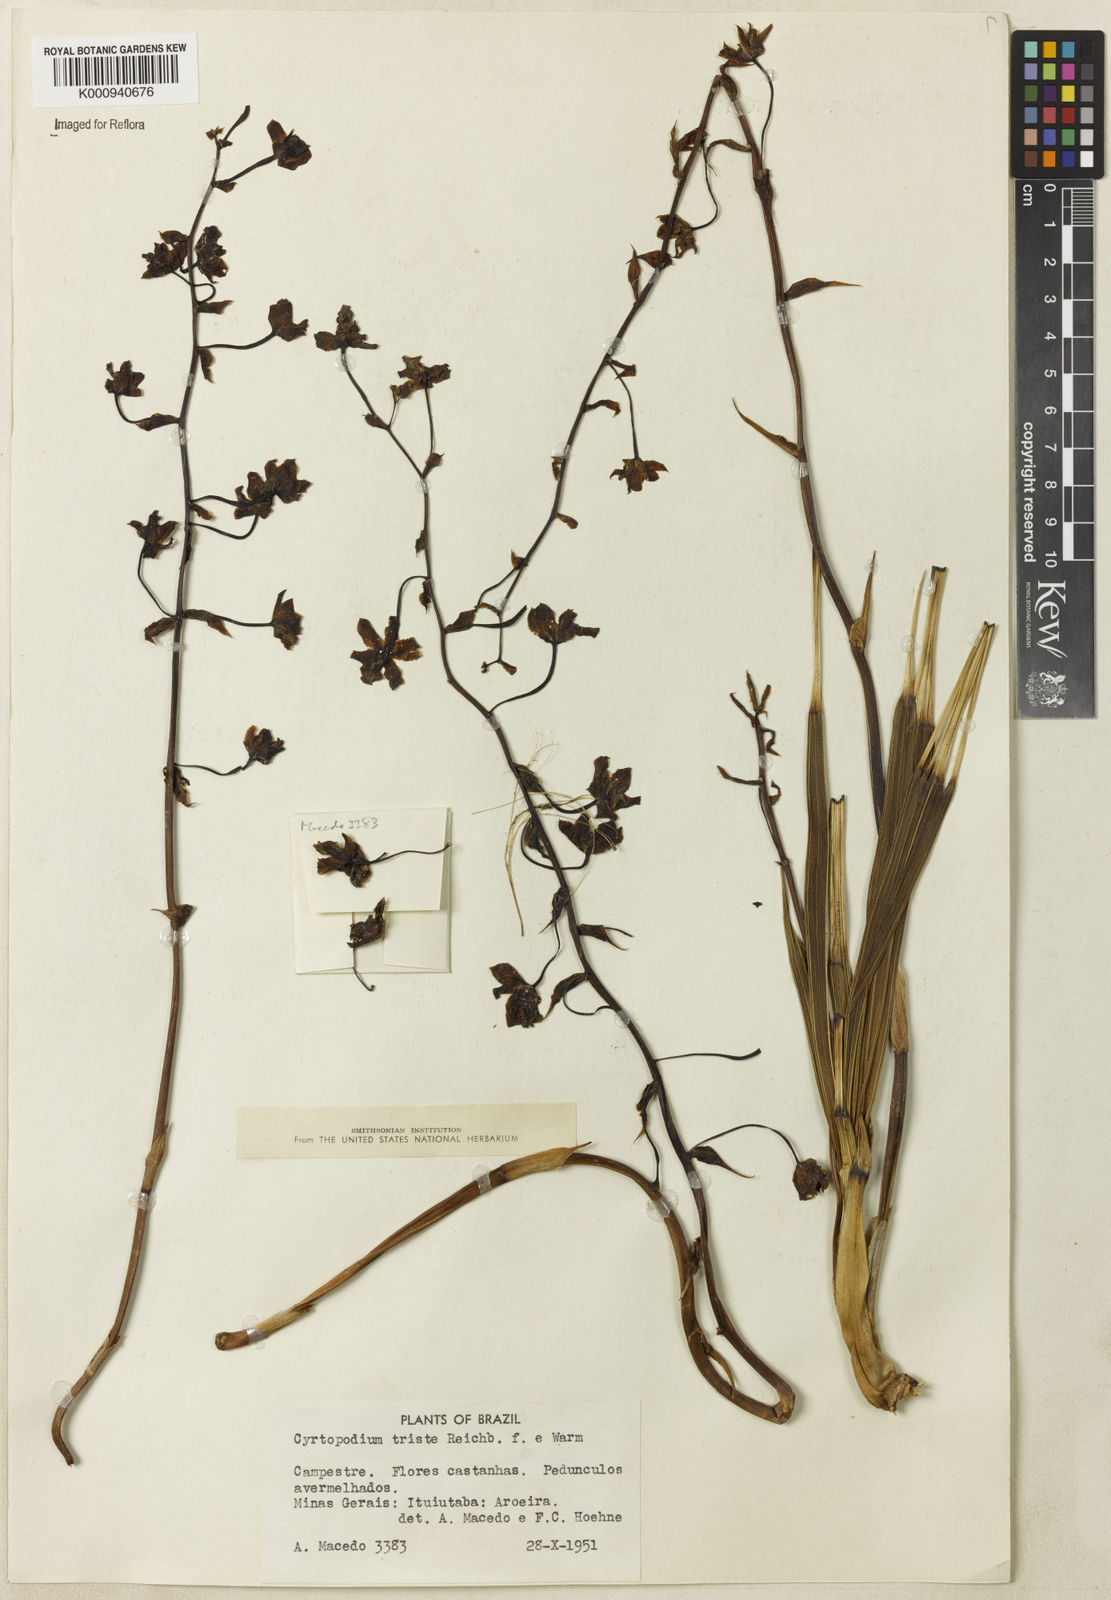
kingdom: Plantae
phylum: Tracheophyta
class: Liliopsida
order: Asparagales
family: Orchidaceae
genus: Cyrtopodium
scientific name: Cyrtopodium triste
